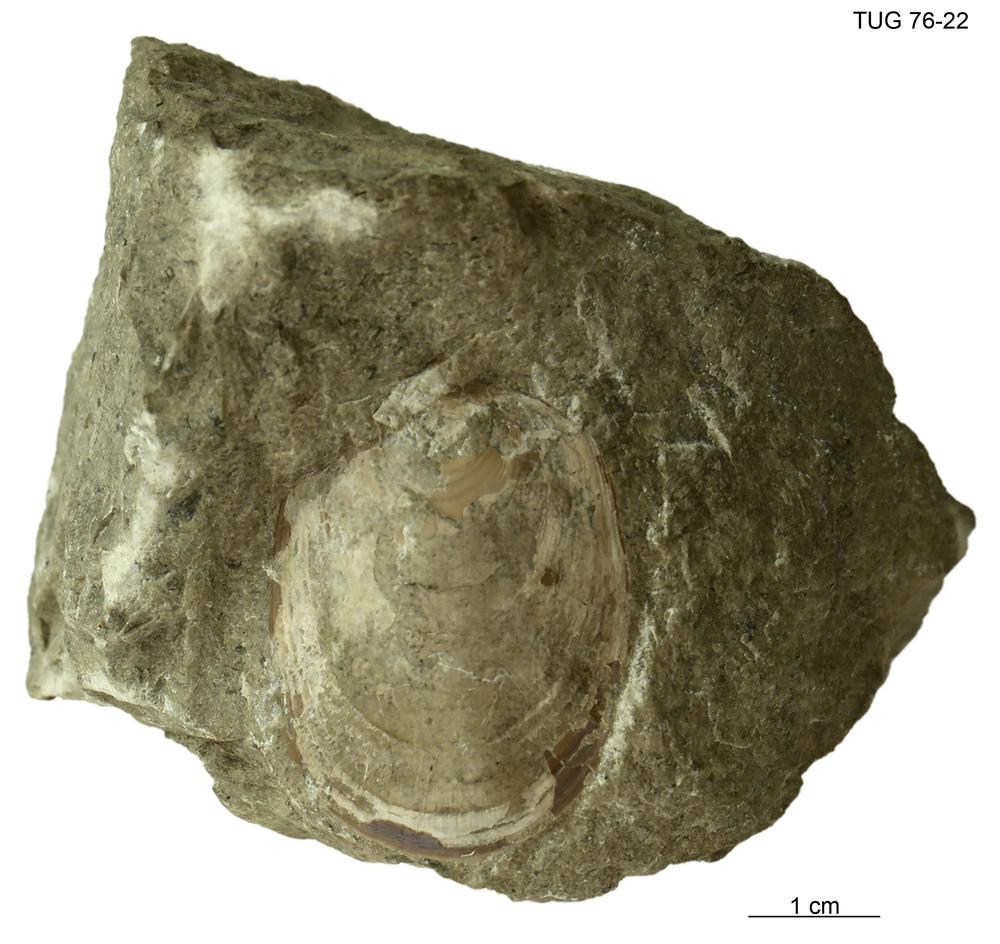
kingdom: Animalia
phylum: Mollusca
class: Gastropoda
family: Subulitidae
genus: Subulites
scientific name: Subulites priscus
